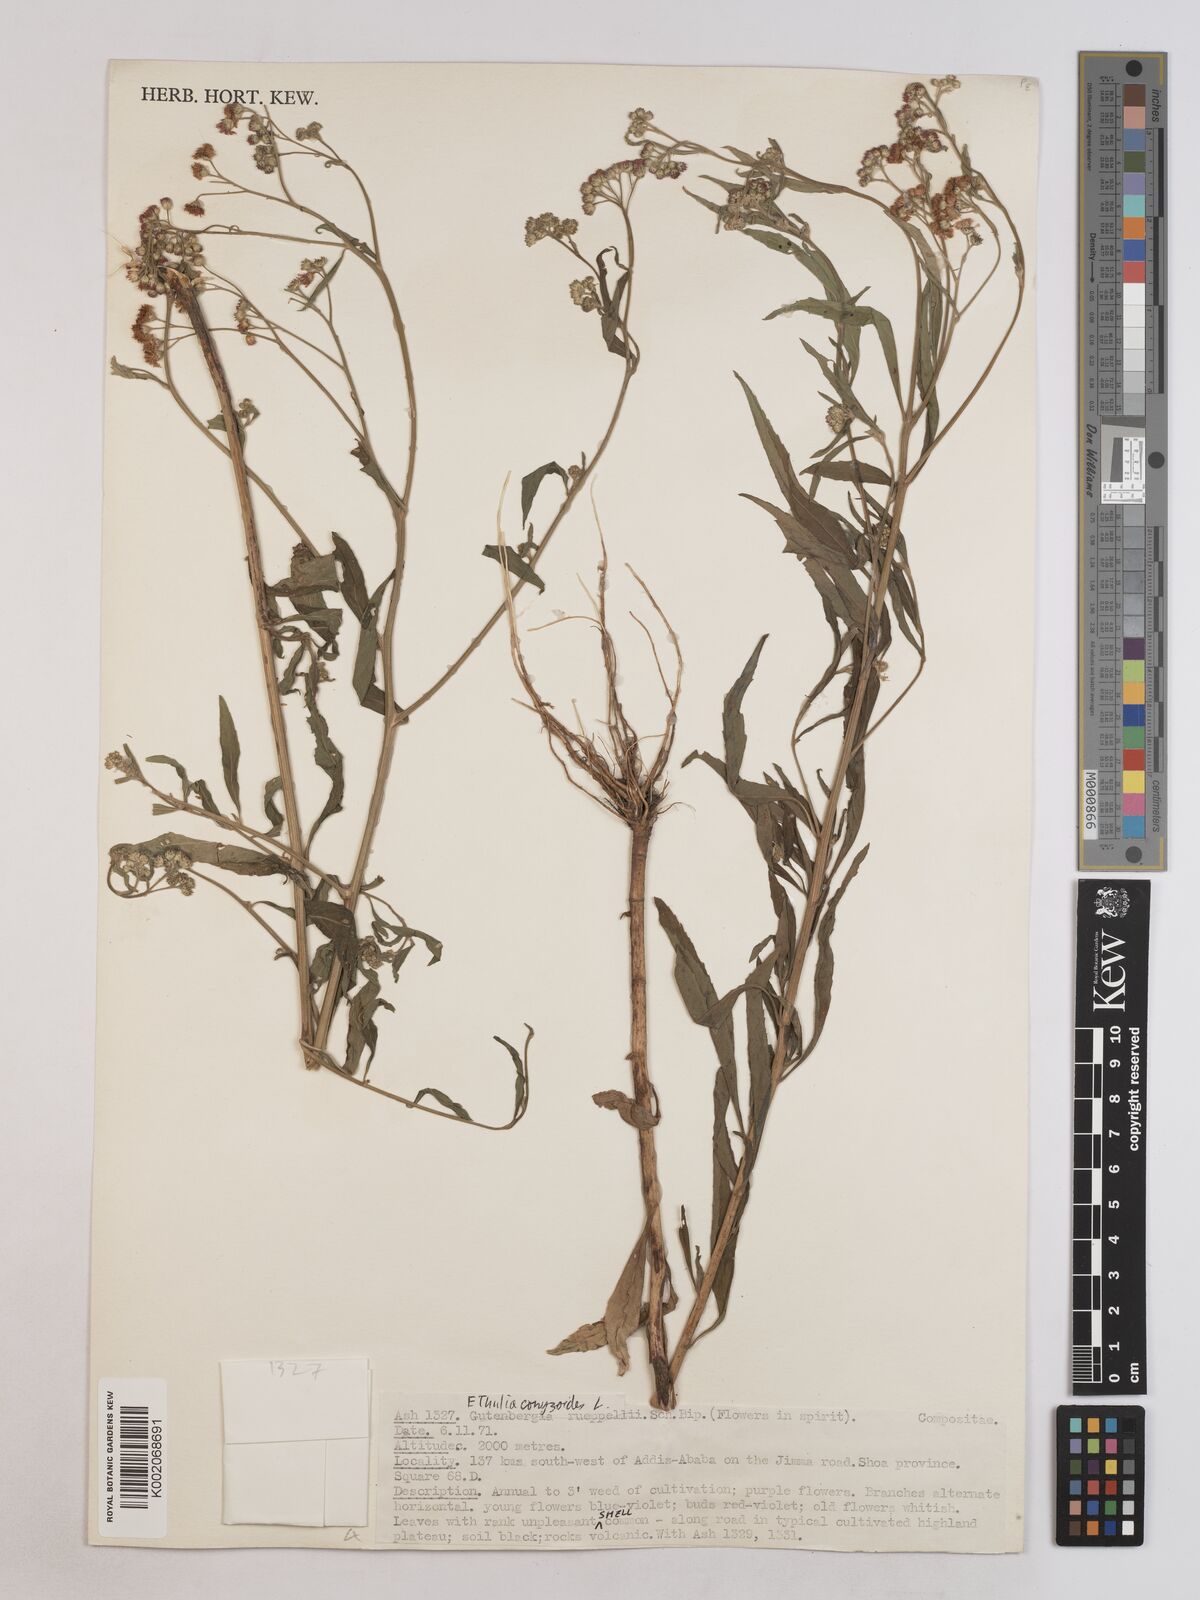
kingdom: Plantae
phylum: Tracheophyta
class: Magnoliopsida
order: Asterales
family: Asteraceae
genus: Ethulia
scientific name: Ethulia gracilis
